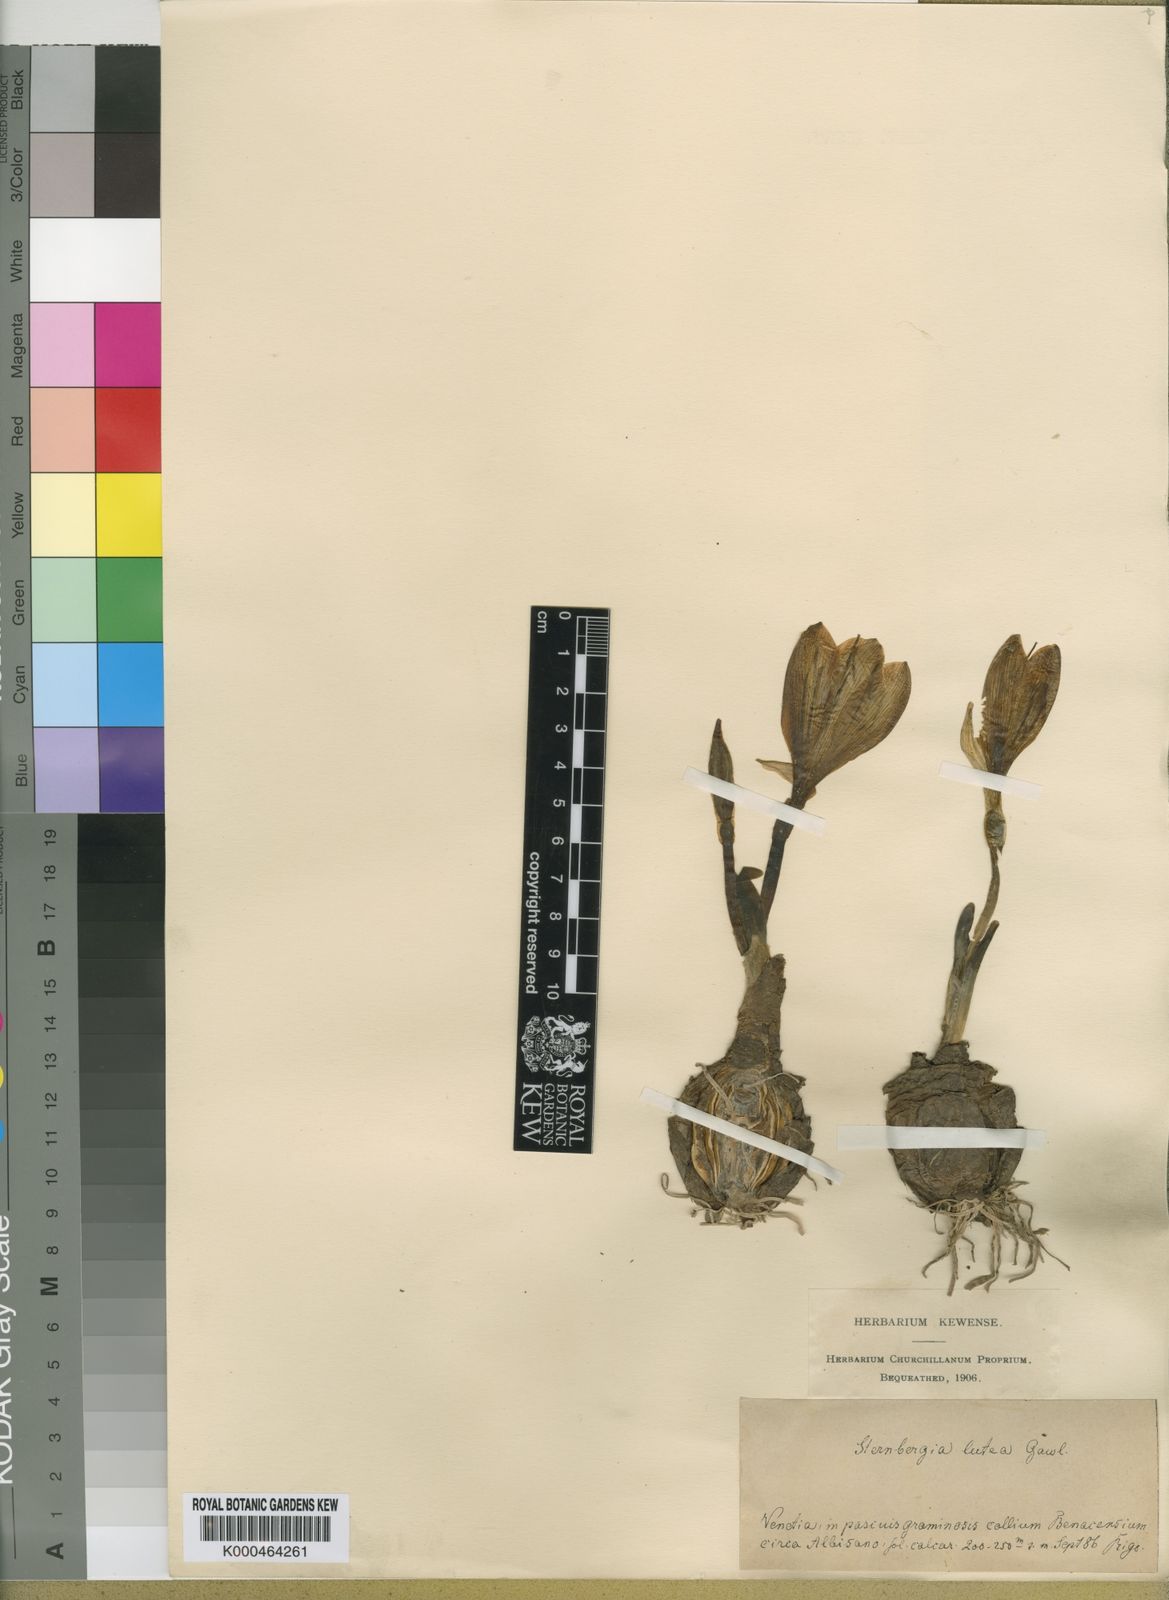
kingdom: Plantae
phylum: Tracheophyta
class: Liliopsida
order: Asparagales
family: Amaryllidaceae
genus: Sternbergia
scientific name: Sternbergia
